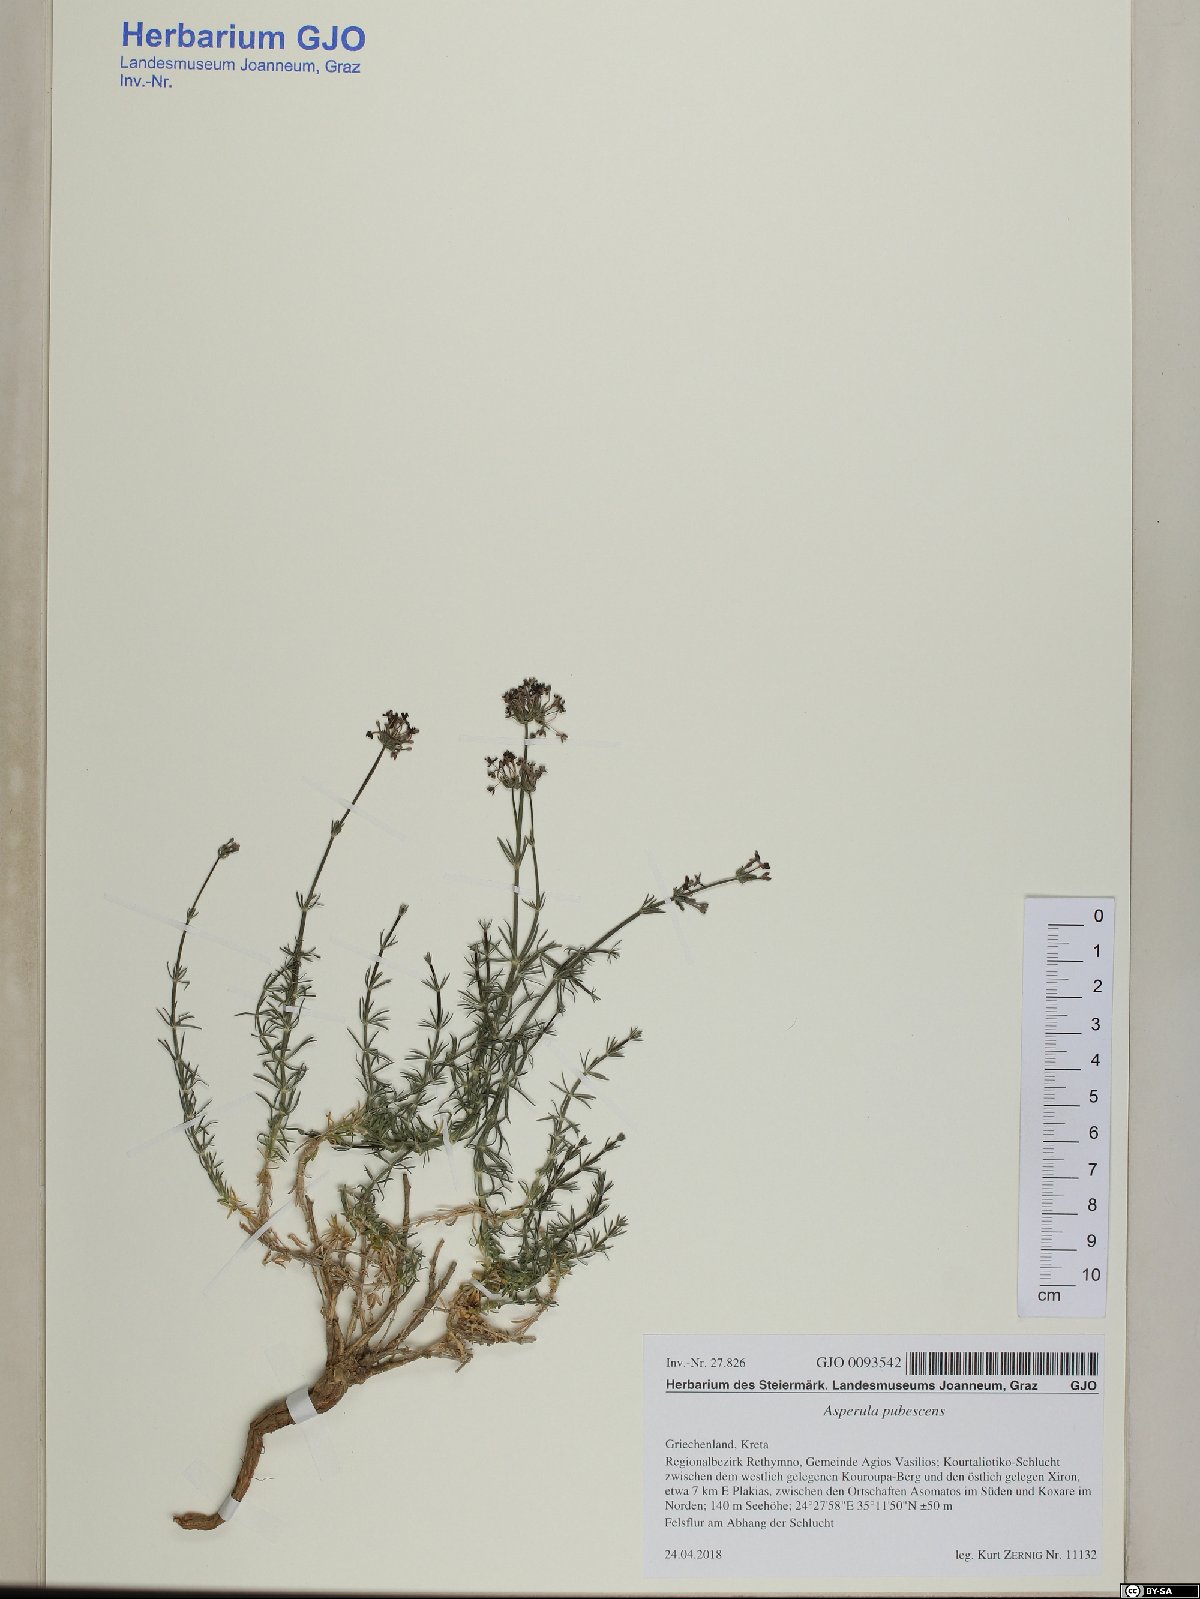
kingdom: Plantae
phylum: Tracheophyta
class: Magnoliopsida
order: Gentianales
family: Rubiaceae
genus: Hexaphylla
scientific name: Hexaphylla pubescens
